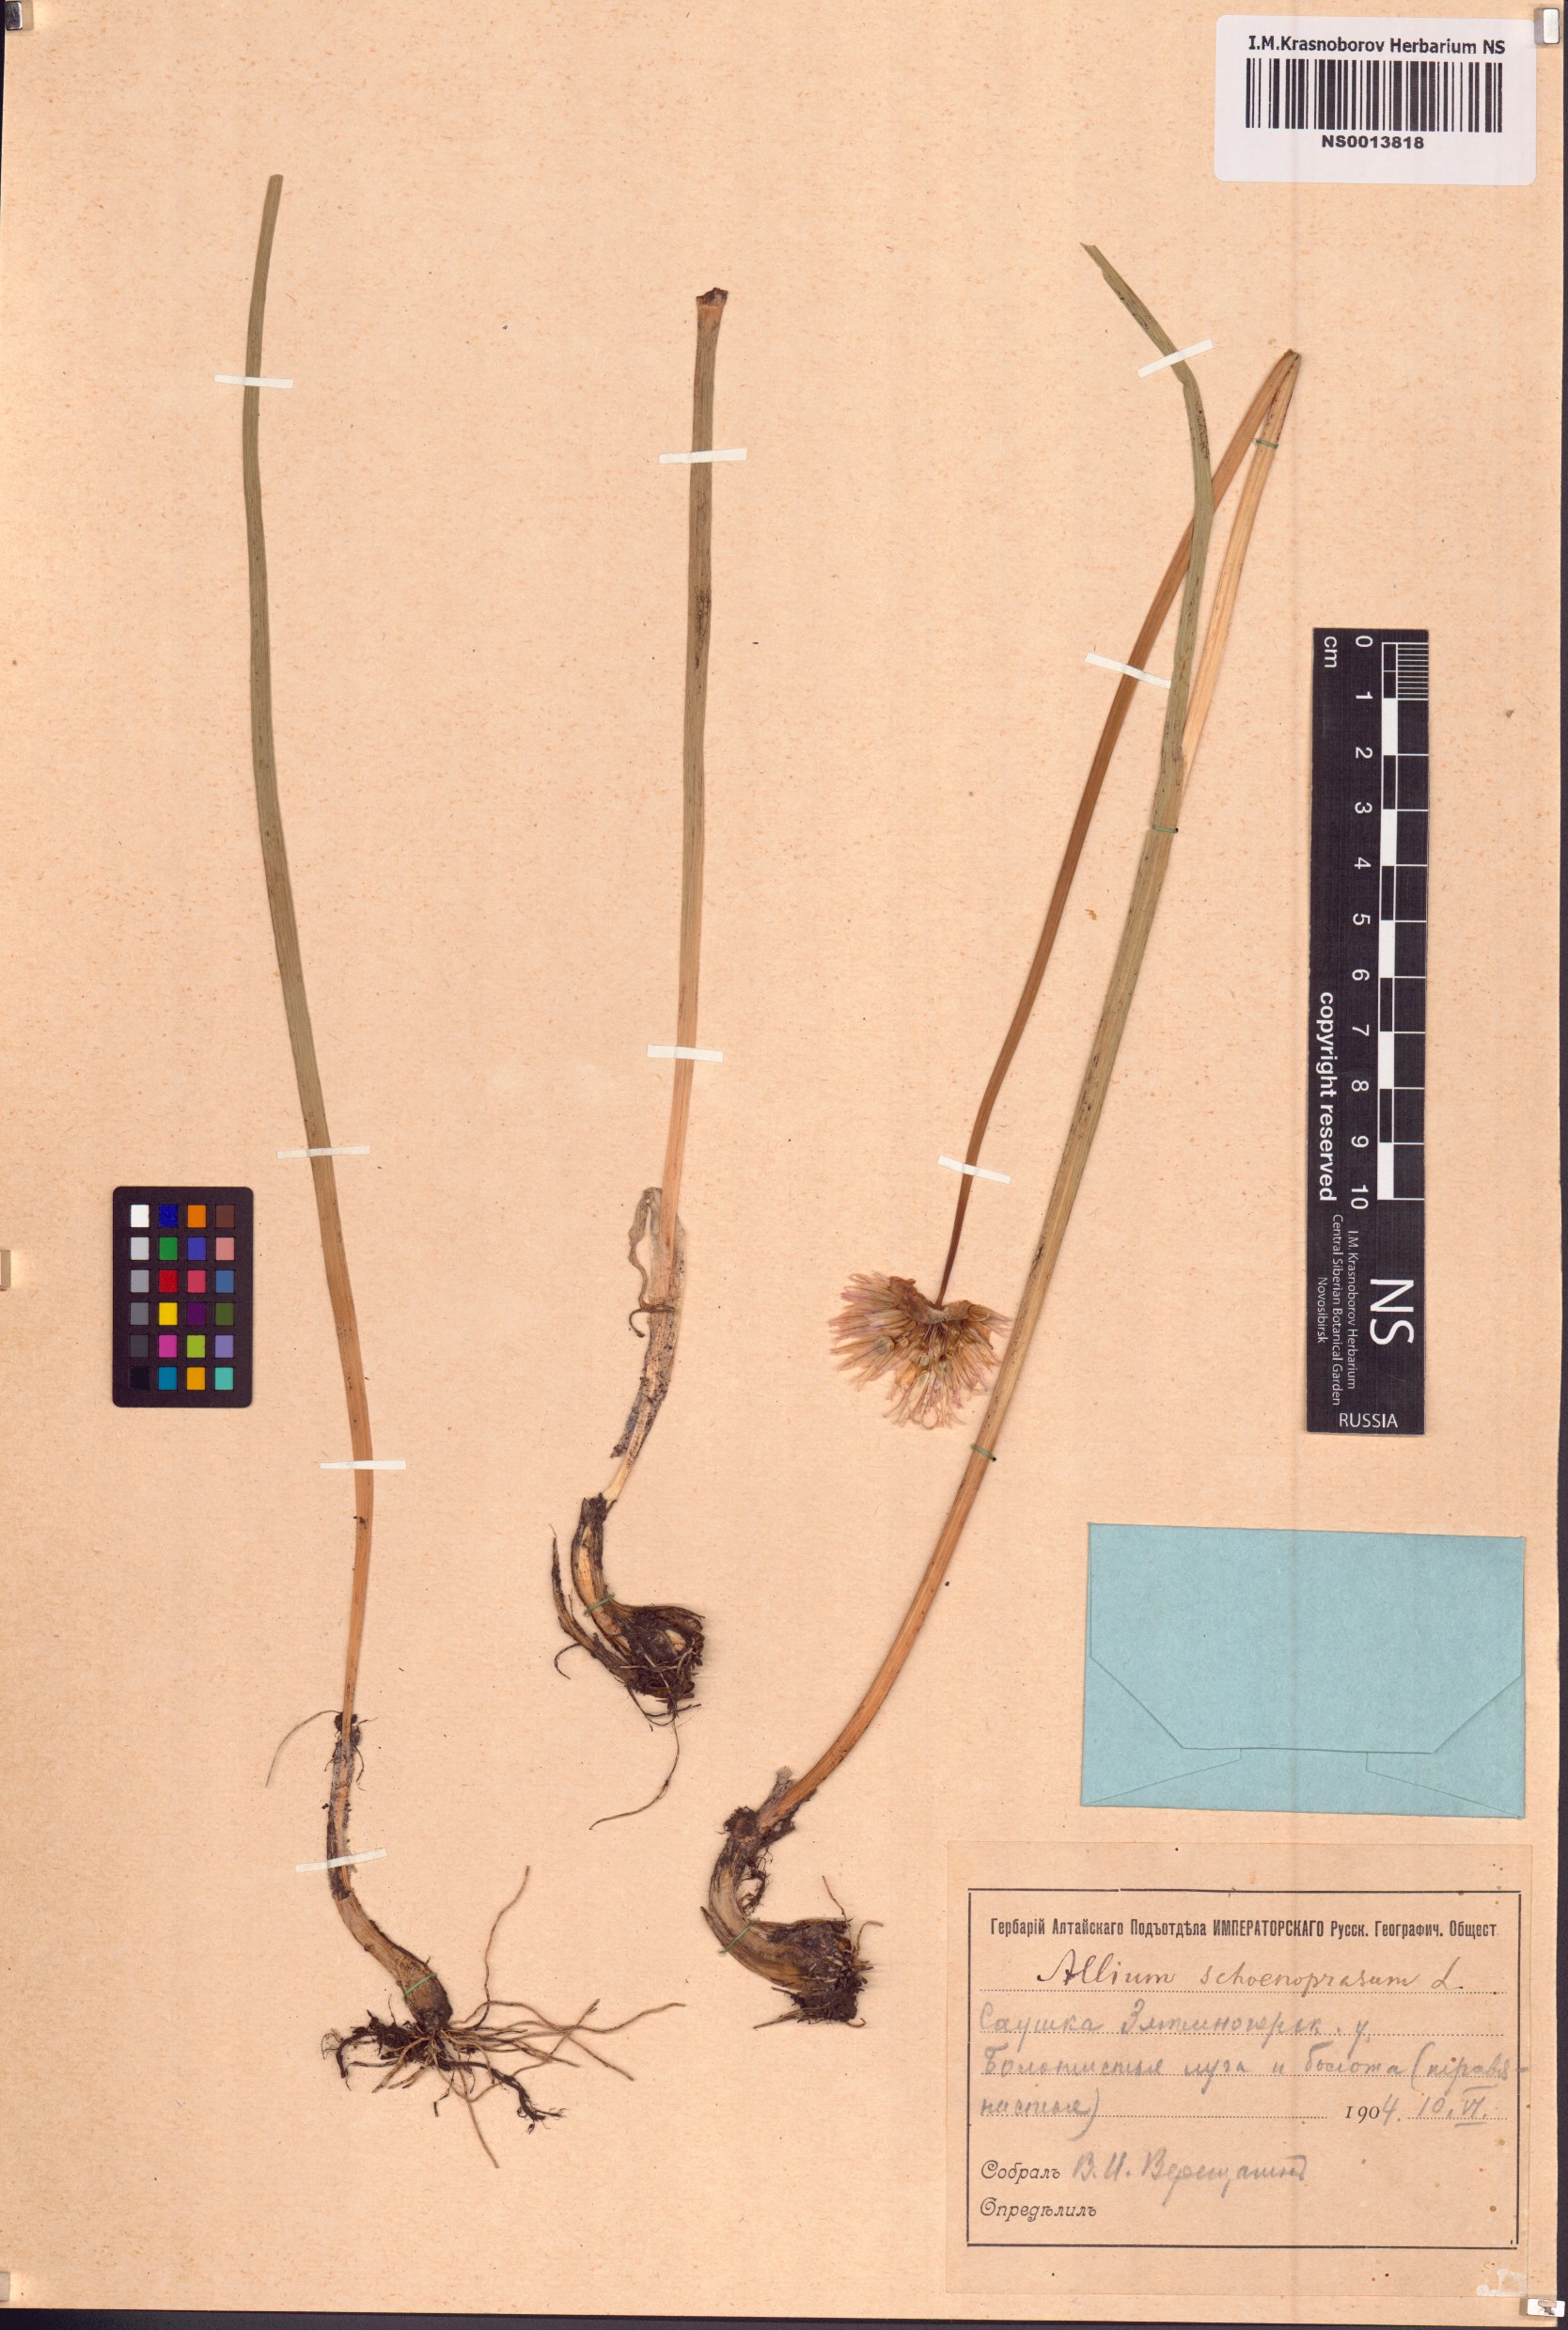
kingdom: Plantae
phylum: Tracheophyta
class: Liliopsida
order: Asparagales
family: Amaryllidaceae
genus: Allium
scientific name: Allium schoenoprasum
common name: Chives
